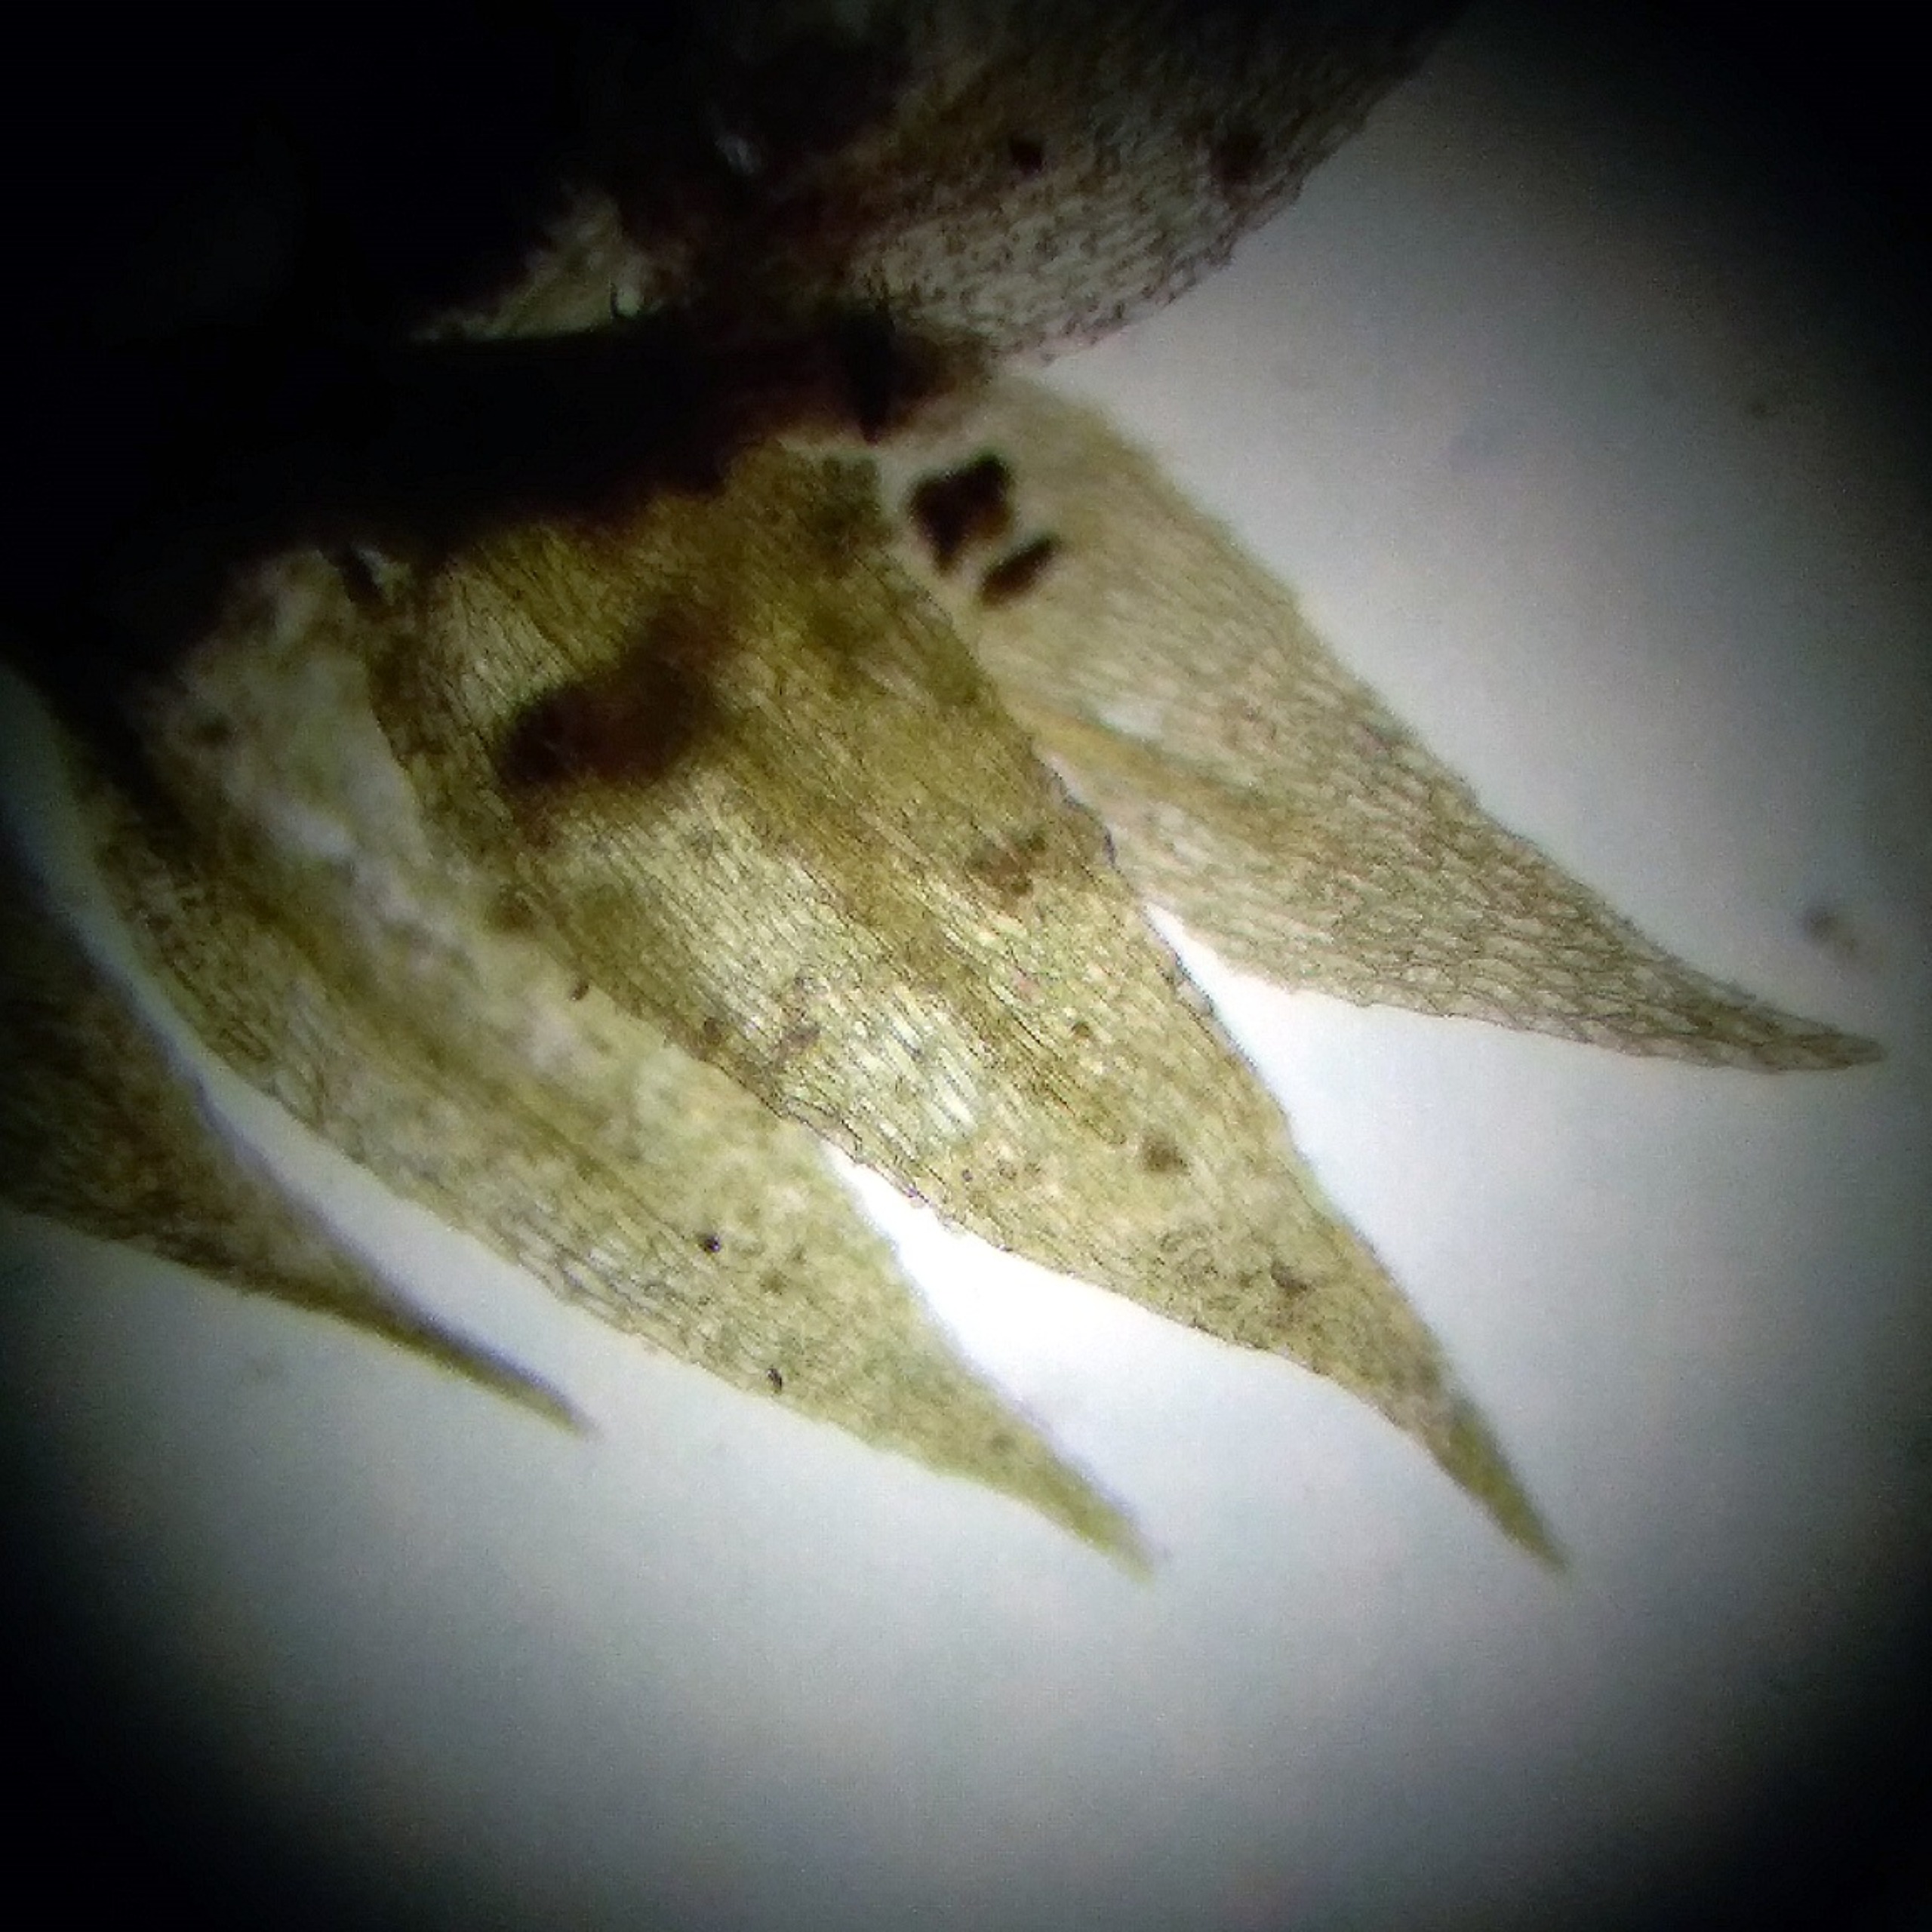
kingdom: Plantae
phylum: Bryophyta
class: Bryopsida
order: Hypnales
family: Brachytheciaceae
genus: Microeurhynchium
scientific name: Microeurhynchium pumilum
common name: Spæd vortetand
